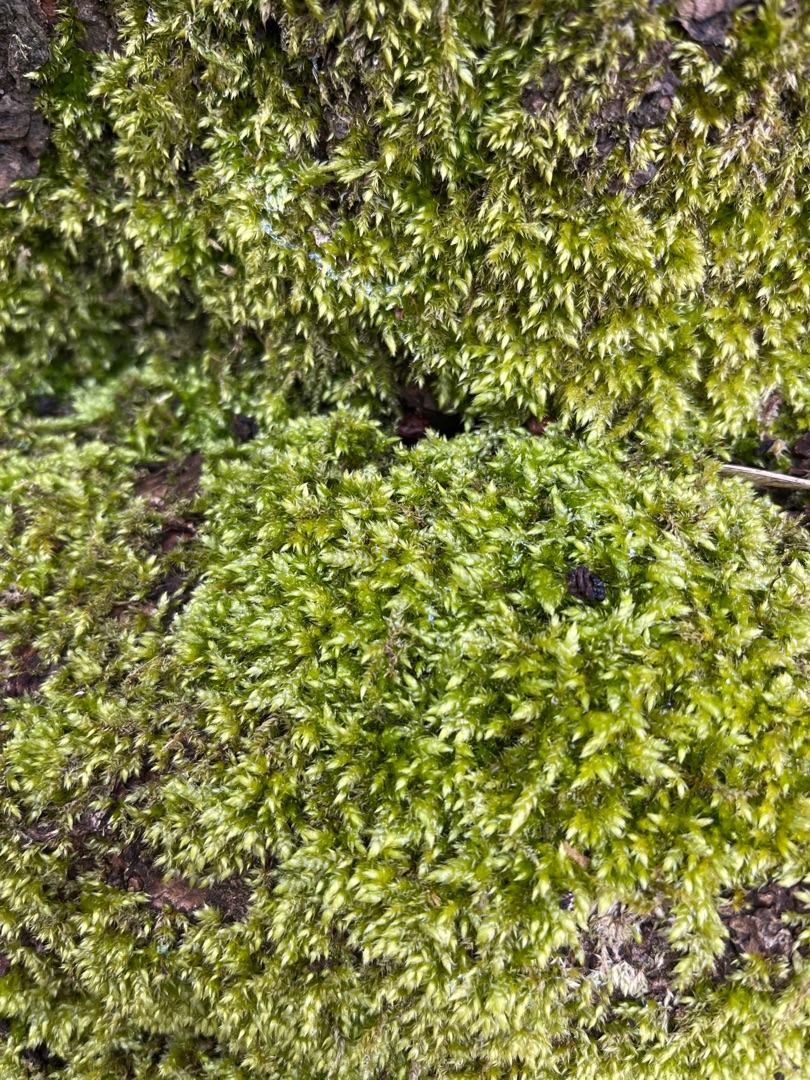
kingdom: Plantae
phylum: Bryophyta
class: Bryopsida
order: Hypnales
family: Brachytheciaceae
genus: Brachythecium
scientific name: Brachythecium rutabulum
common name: Almindelig kortkapsel
